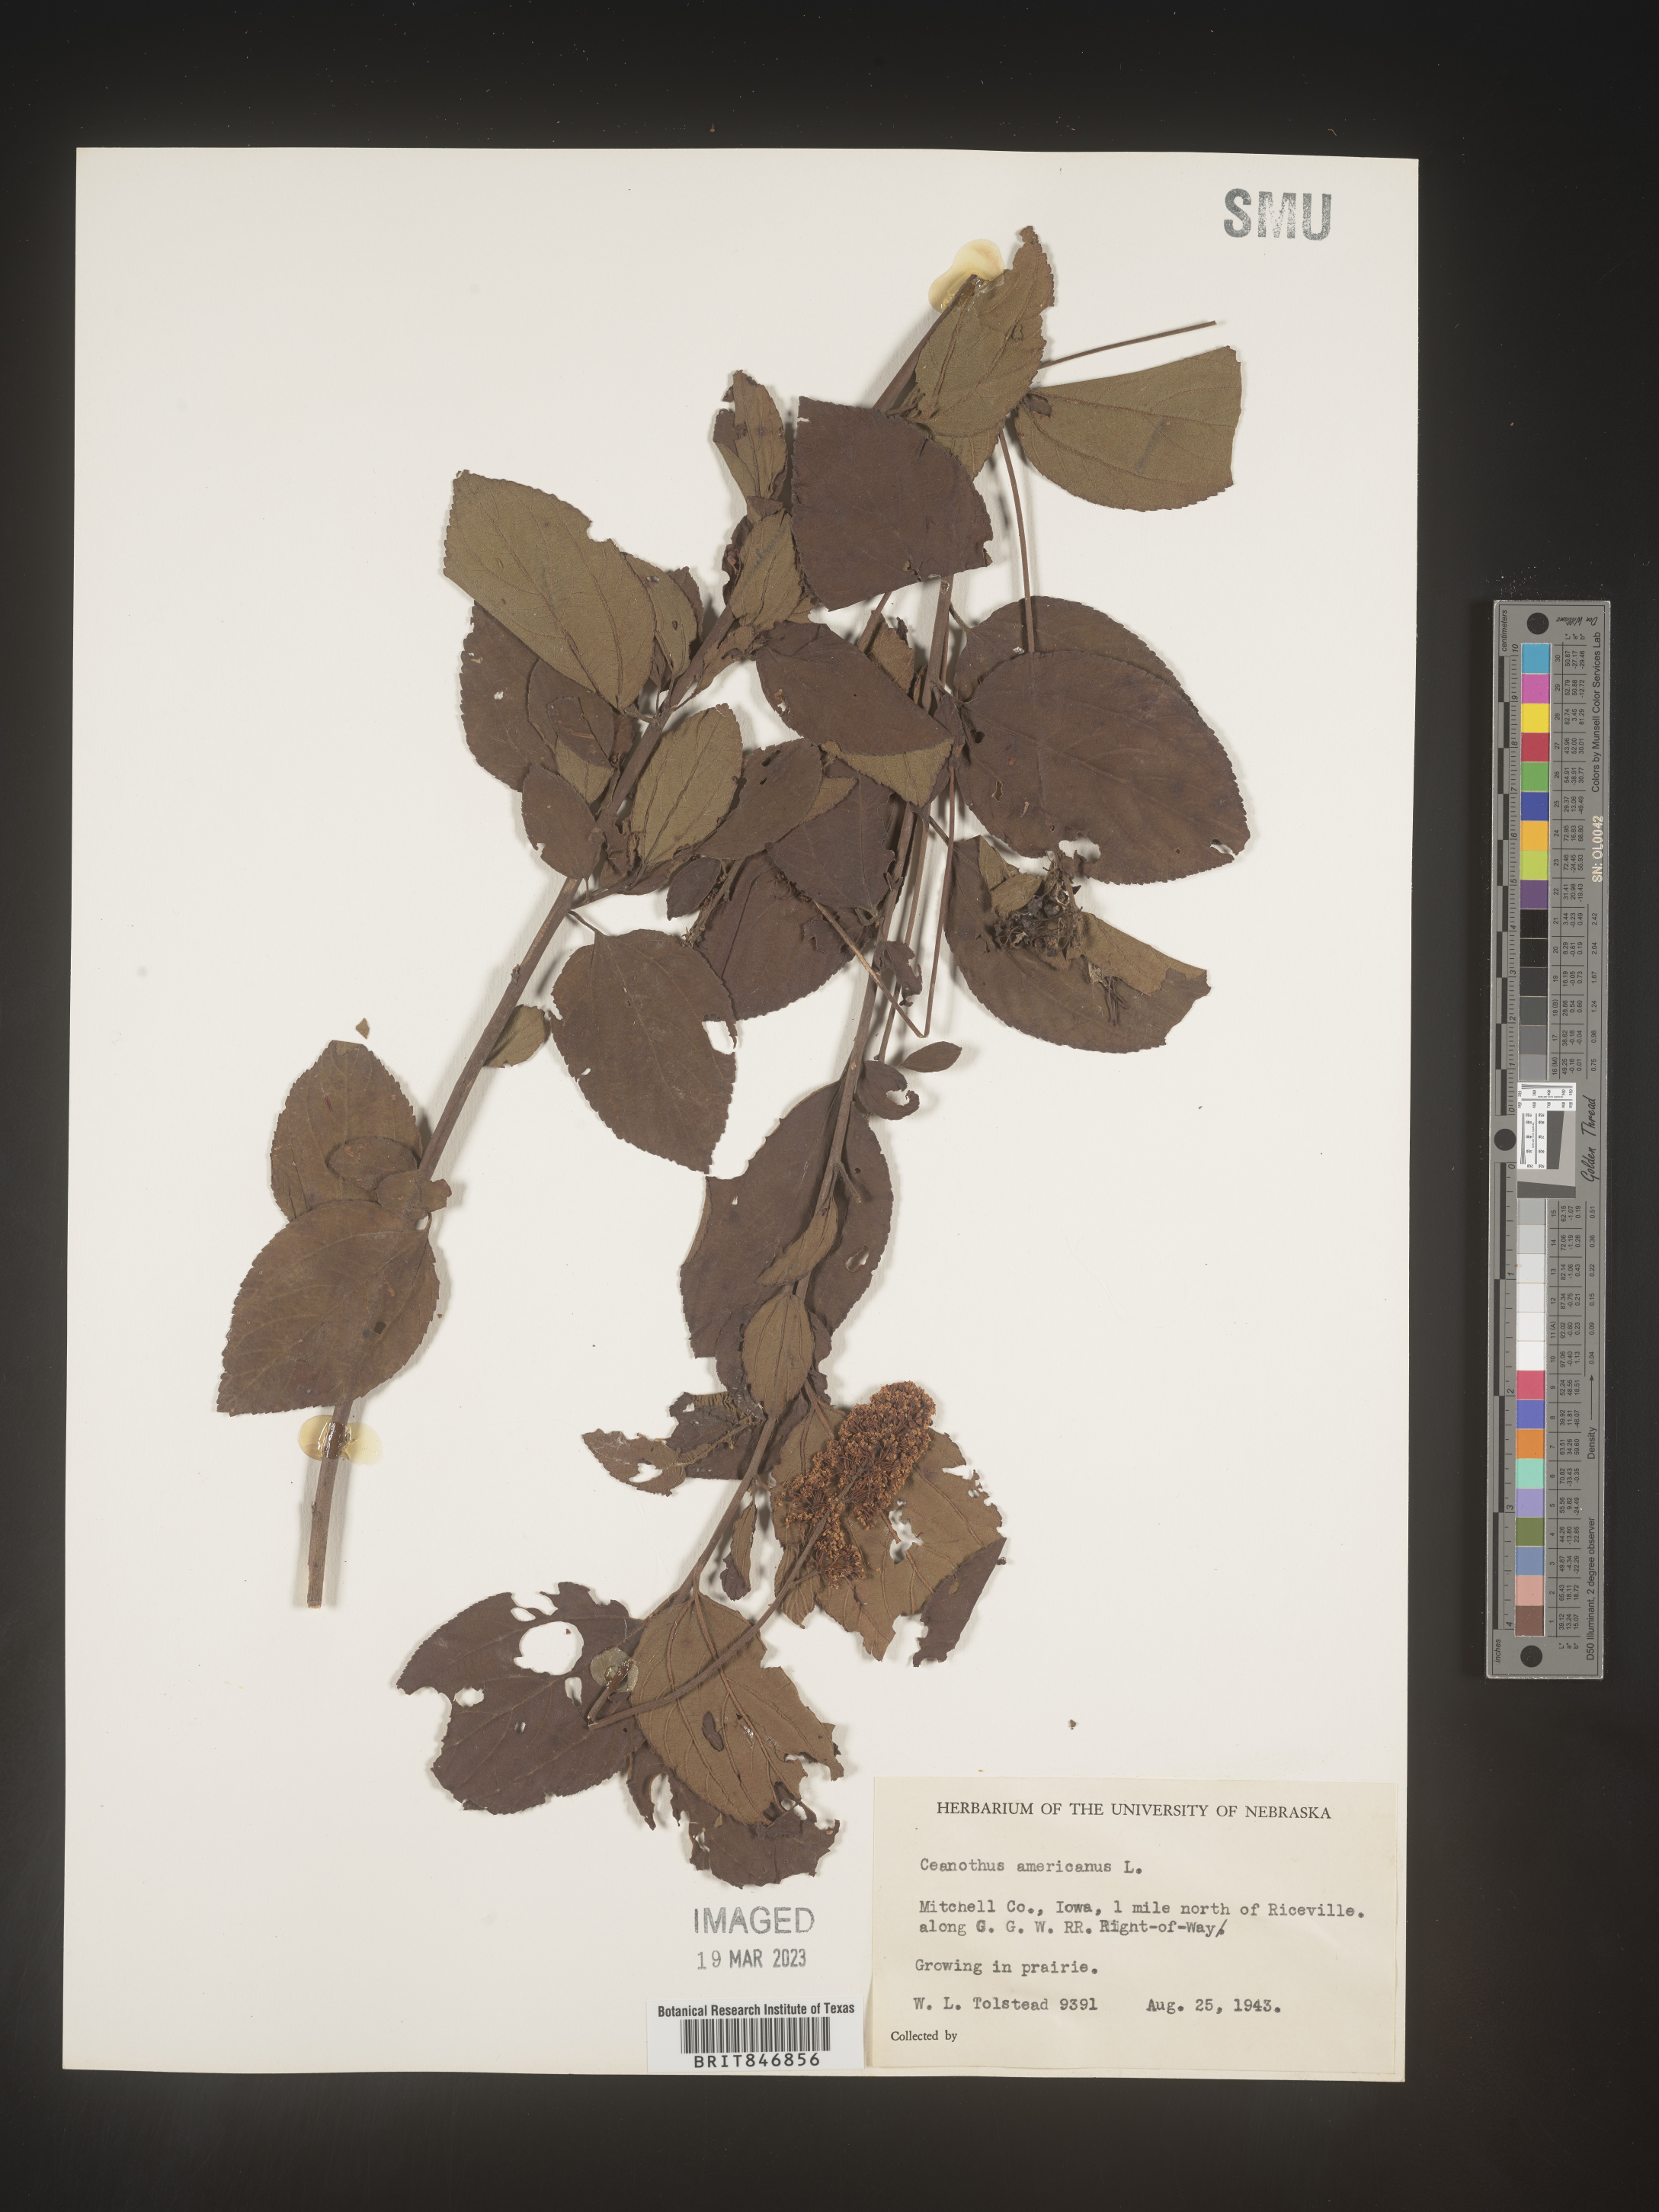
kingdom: Plantae
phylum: Tracheophyta
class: Magnoliopsida
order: Rosales
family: Rhamnaceae
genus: Ceanothus
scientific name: Ceanothus americanus
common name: Redroot
